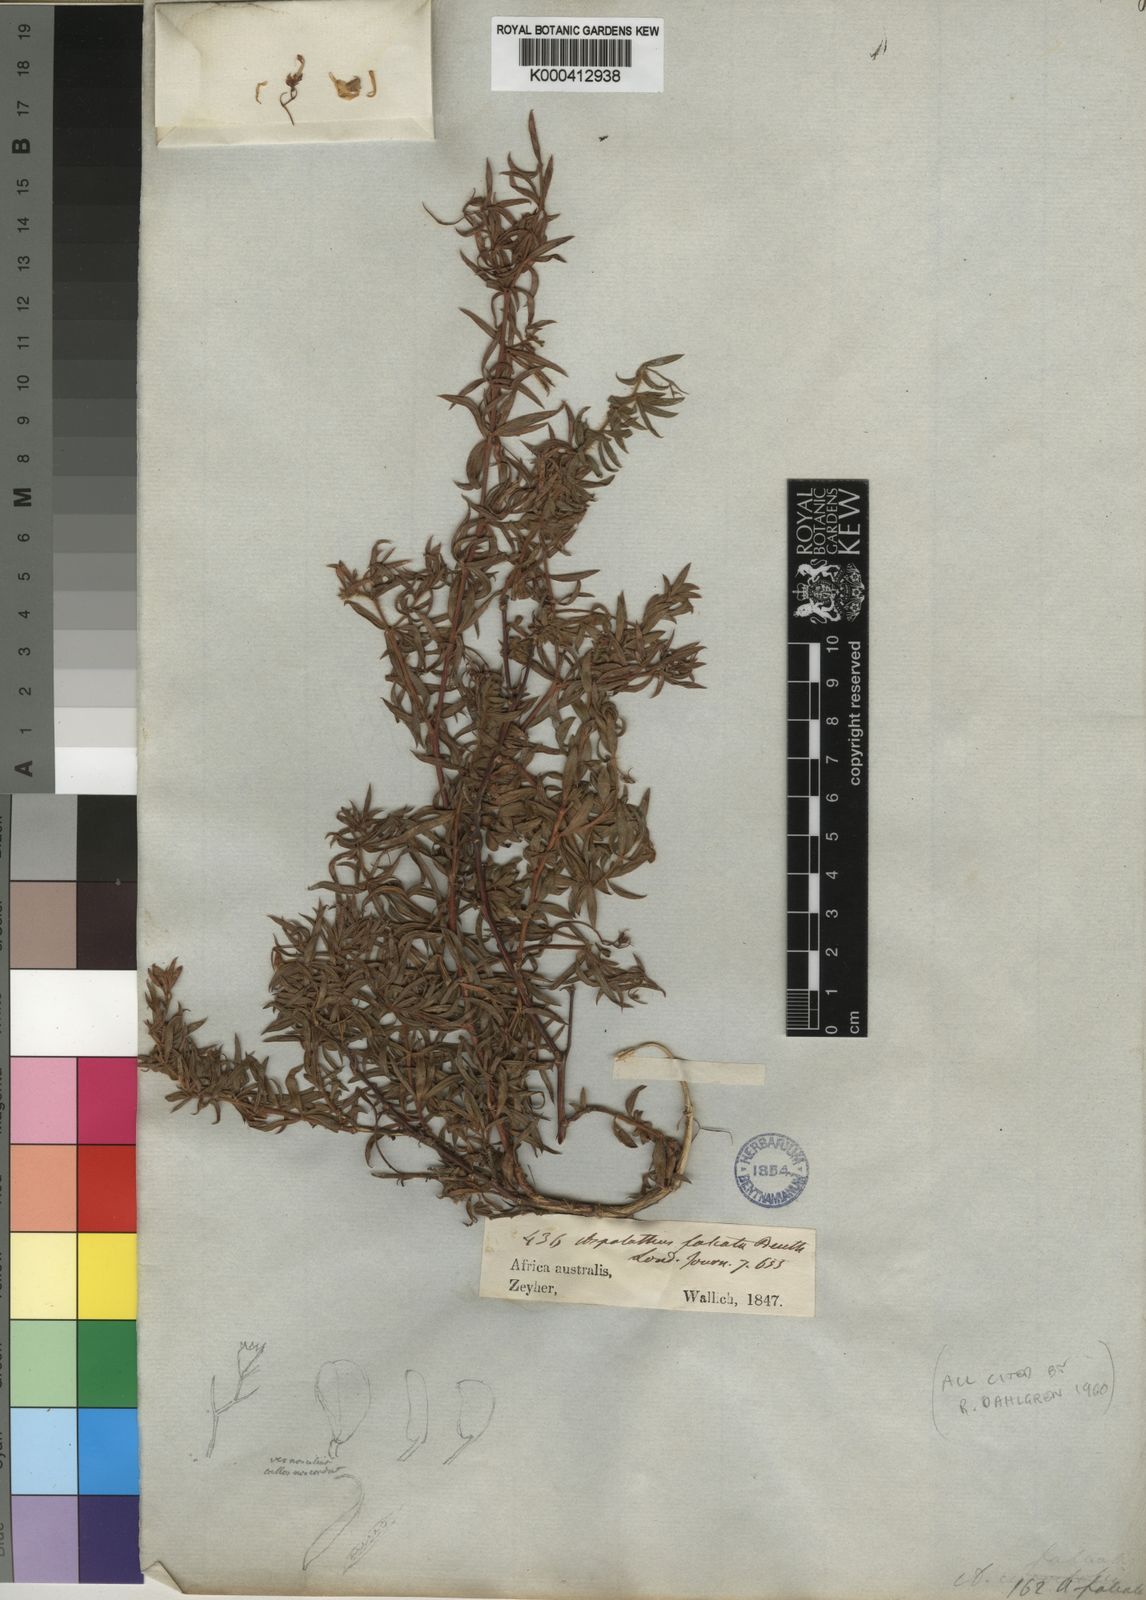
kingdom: Plantae
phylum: Tracheophyta
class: Magnoliopsida
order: Fabales
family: Fabaceae
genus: Aspalathus
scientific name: Aspalathus lanata
